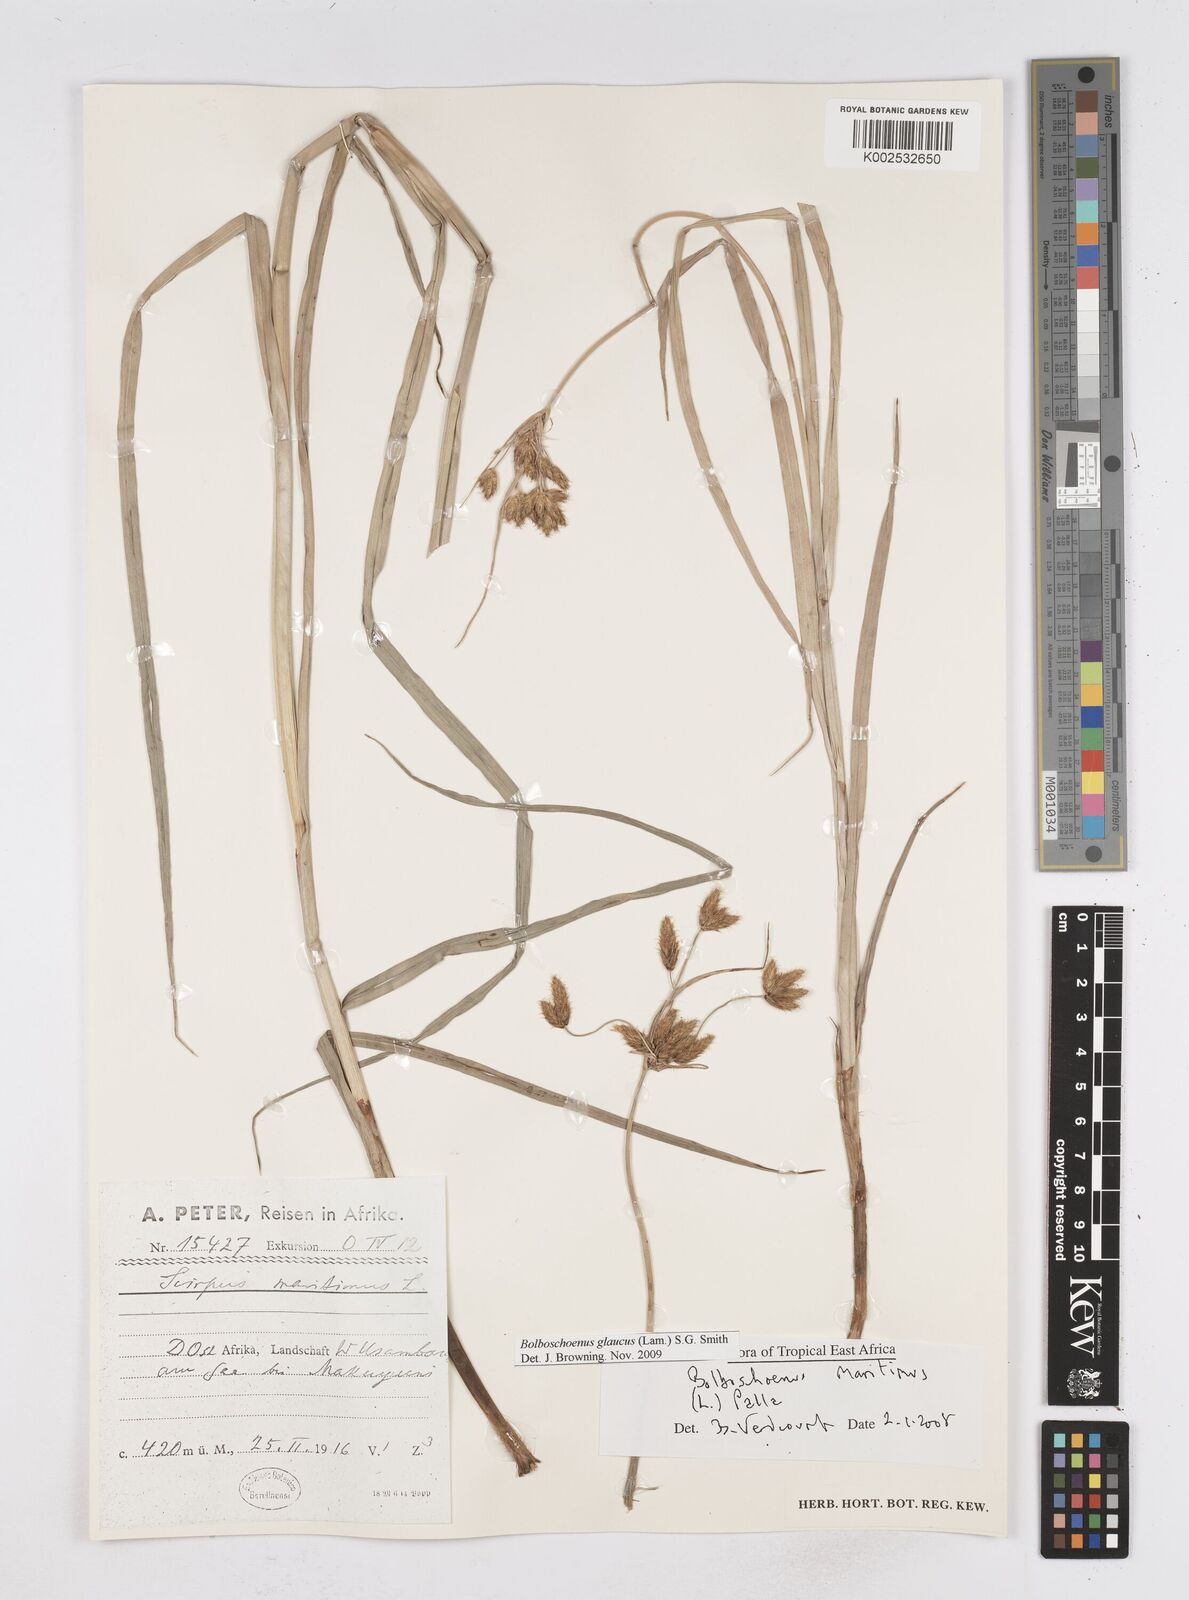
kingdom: Plantae
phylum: Tracheophyta
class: Liliopsida
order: Poales
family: Cyperaceae
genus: Bolboschoenus
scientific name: Bolboschoenus glaucus
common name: Tuberous bulrush
